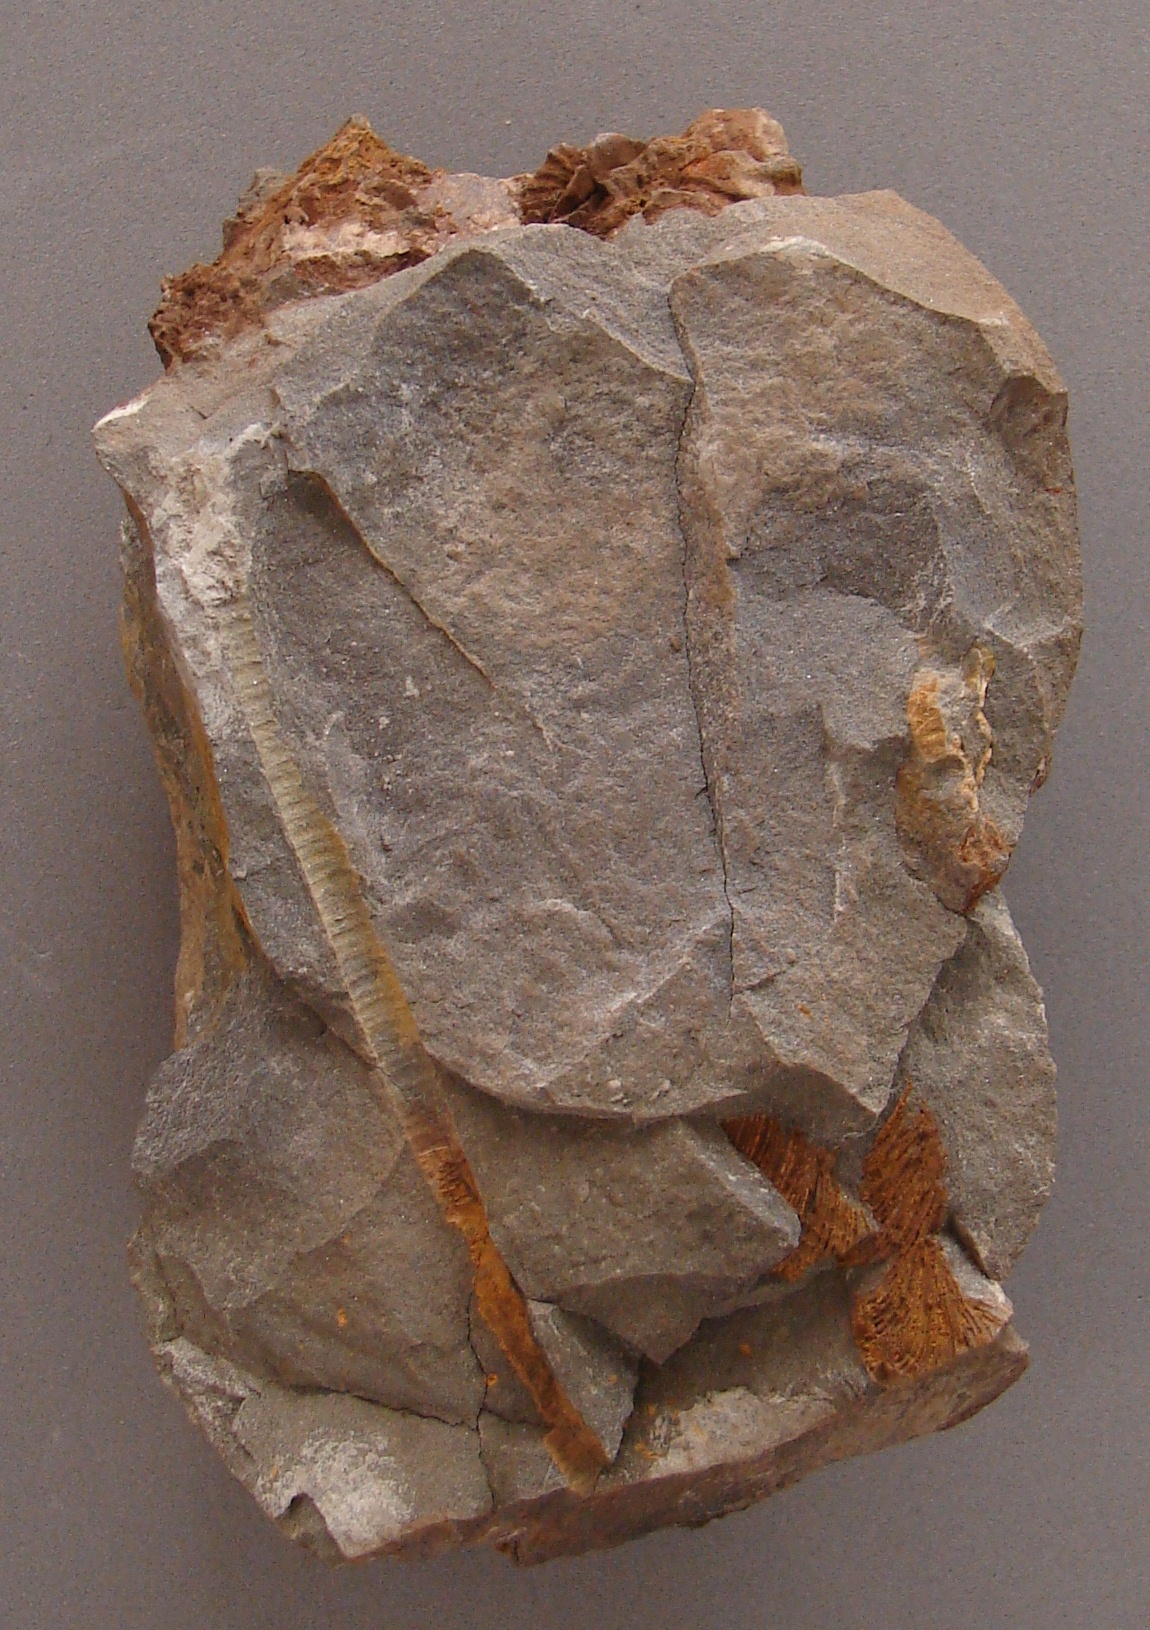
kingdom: Animalia
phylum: Echinodermata
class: Crinoidea
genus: Facetocrinus
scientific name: Facetocrinus
